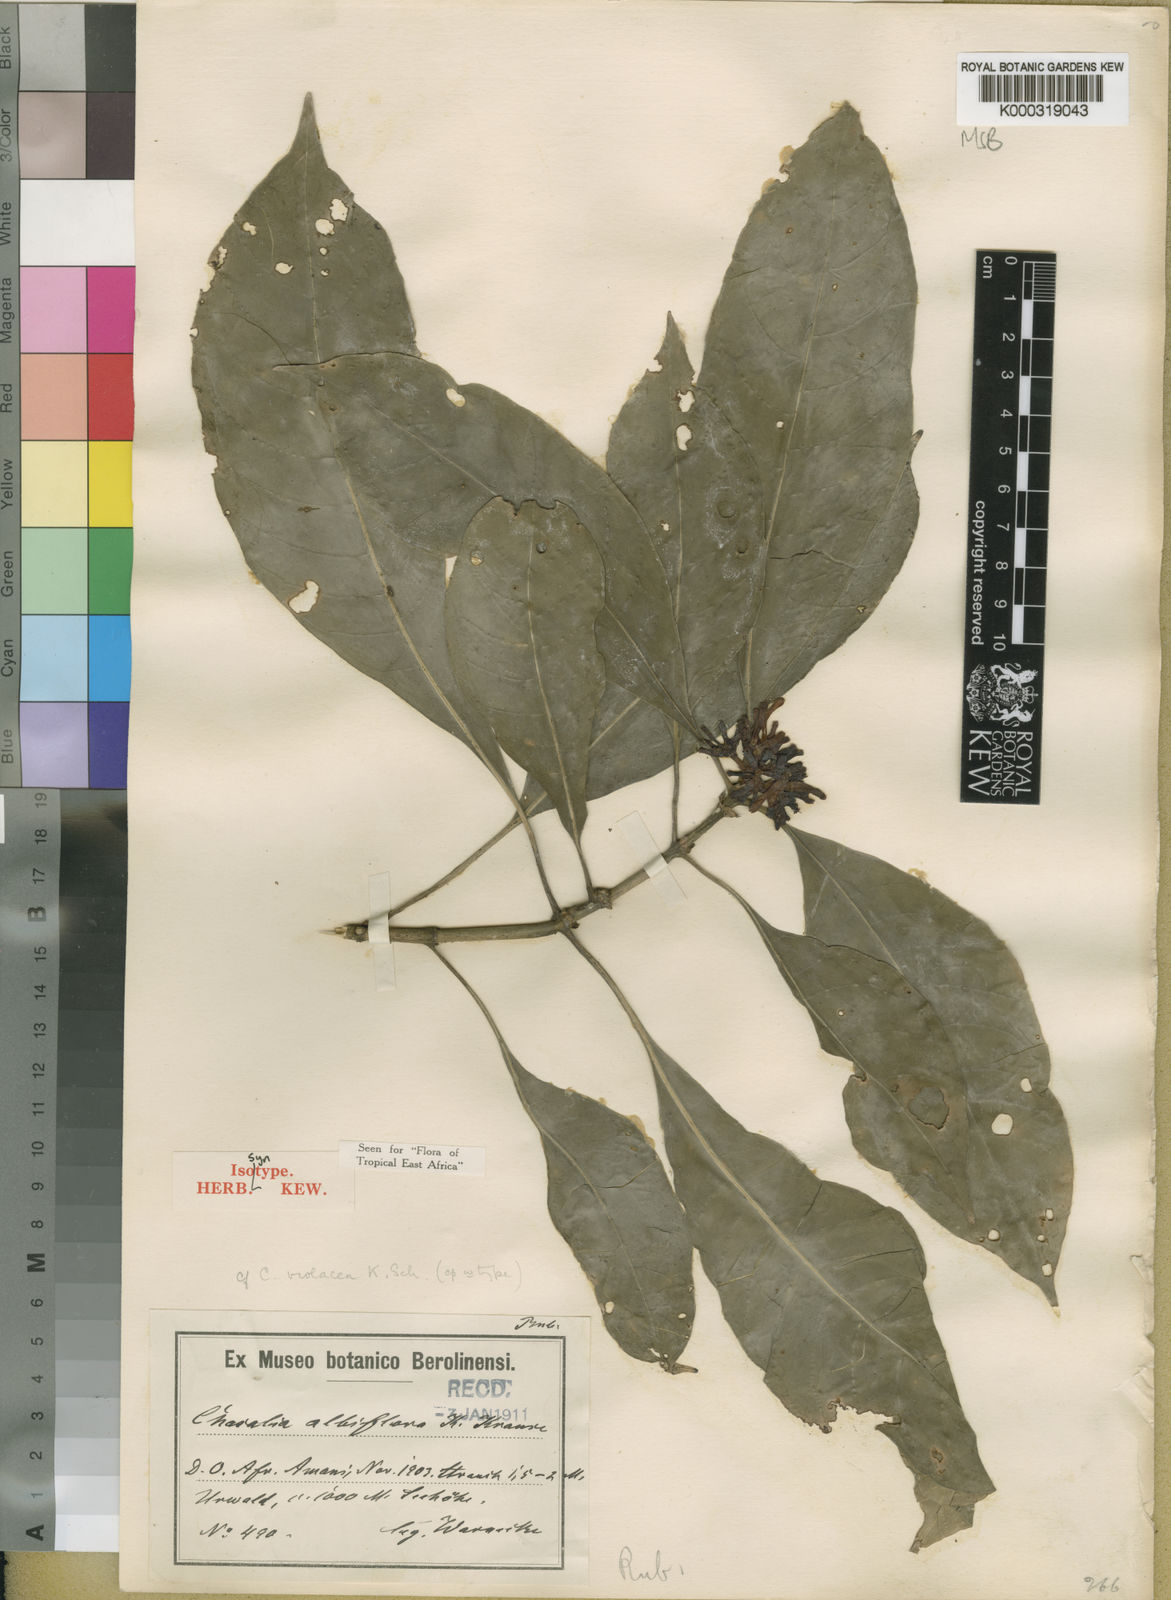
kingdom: Plantae
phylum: Tracheophyta
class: Magnoliopsida
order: Gentianales
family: Rubiaceae
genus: Chassalia
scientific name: Chassalia albiflora
